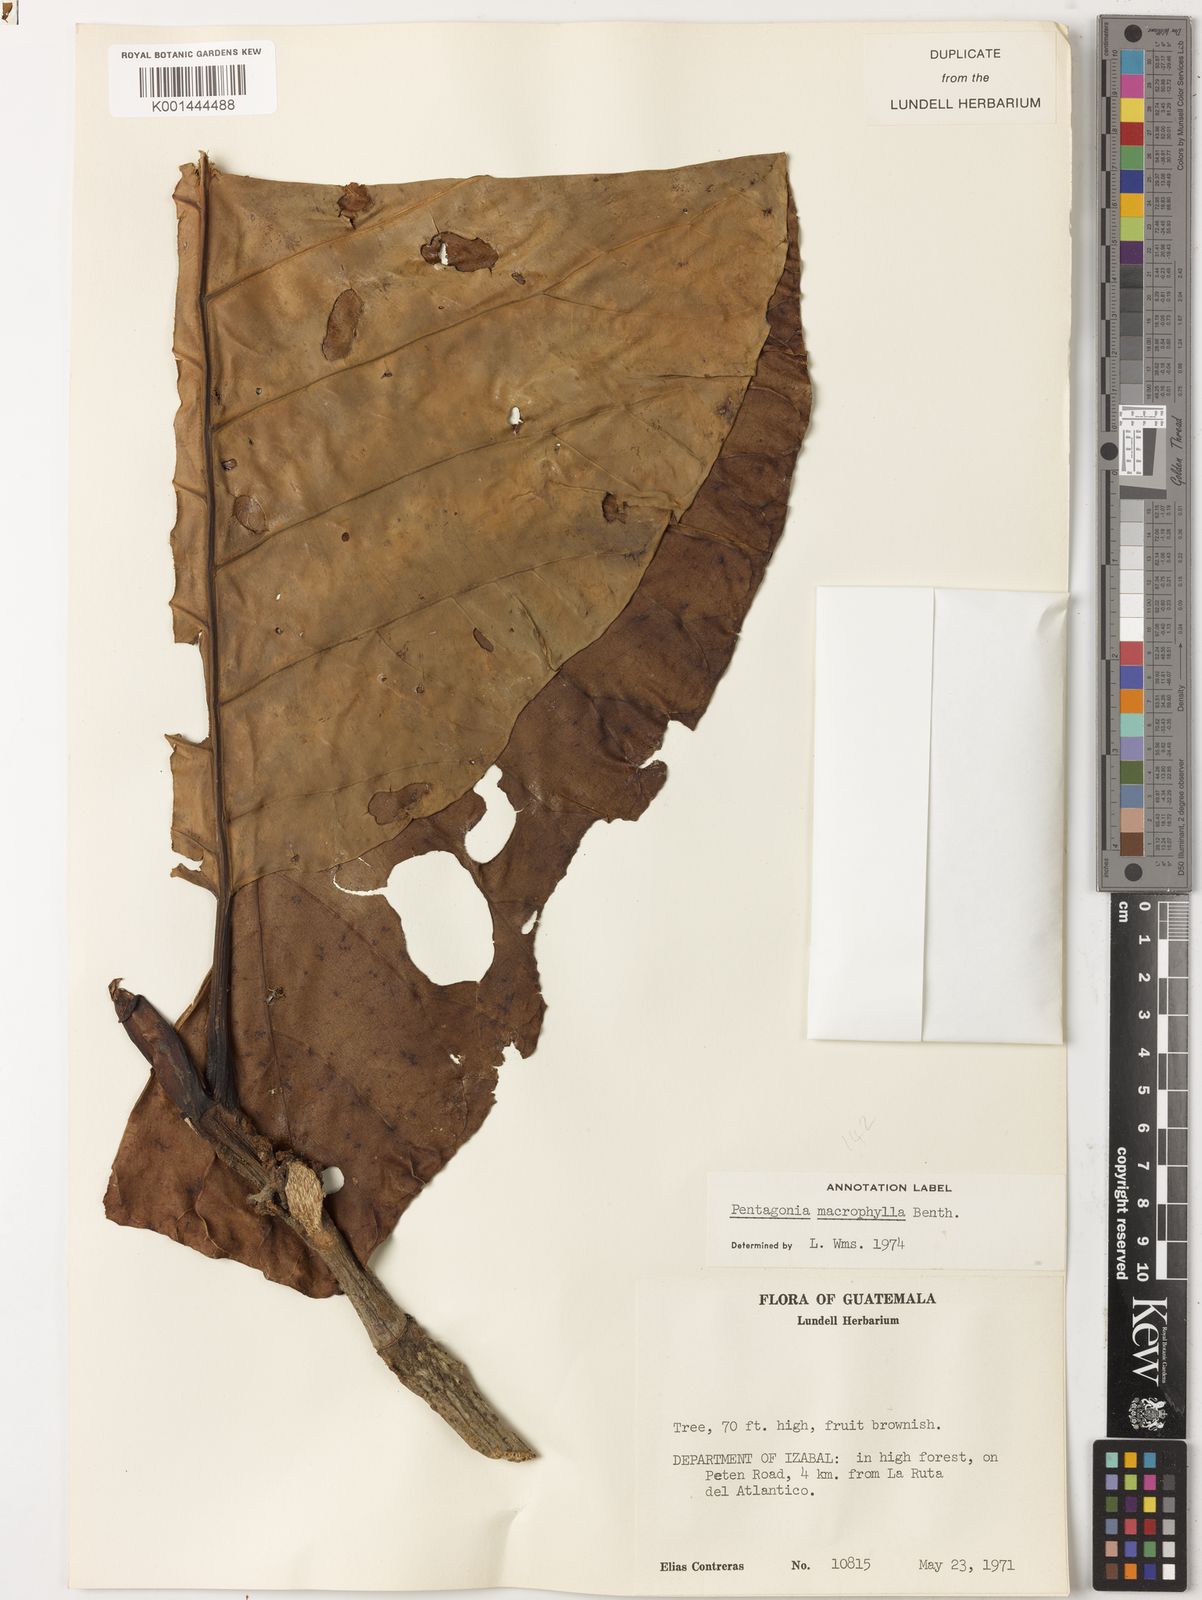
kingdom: Plantae
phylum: Tracheophyta
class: Magnoliopsida
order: Gentianales
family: Rubiaceae
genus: Pentagonia
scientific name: Pentagonia donnell-smithii
